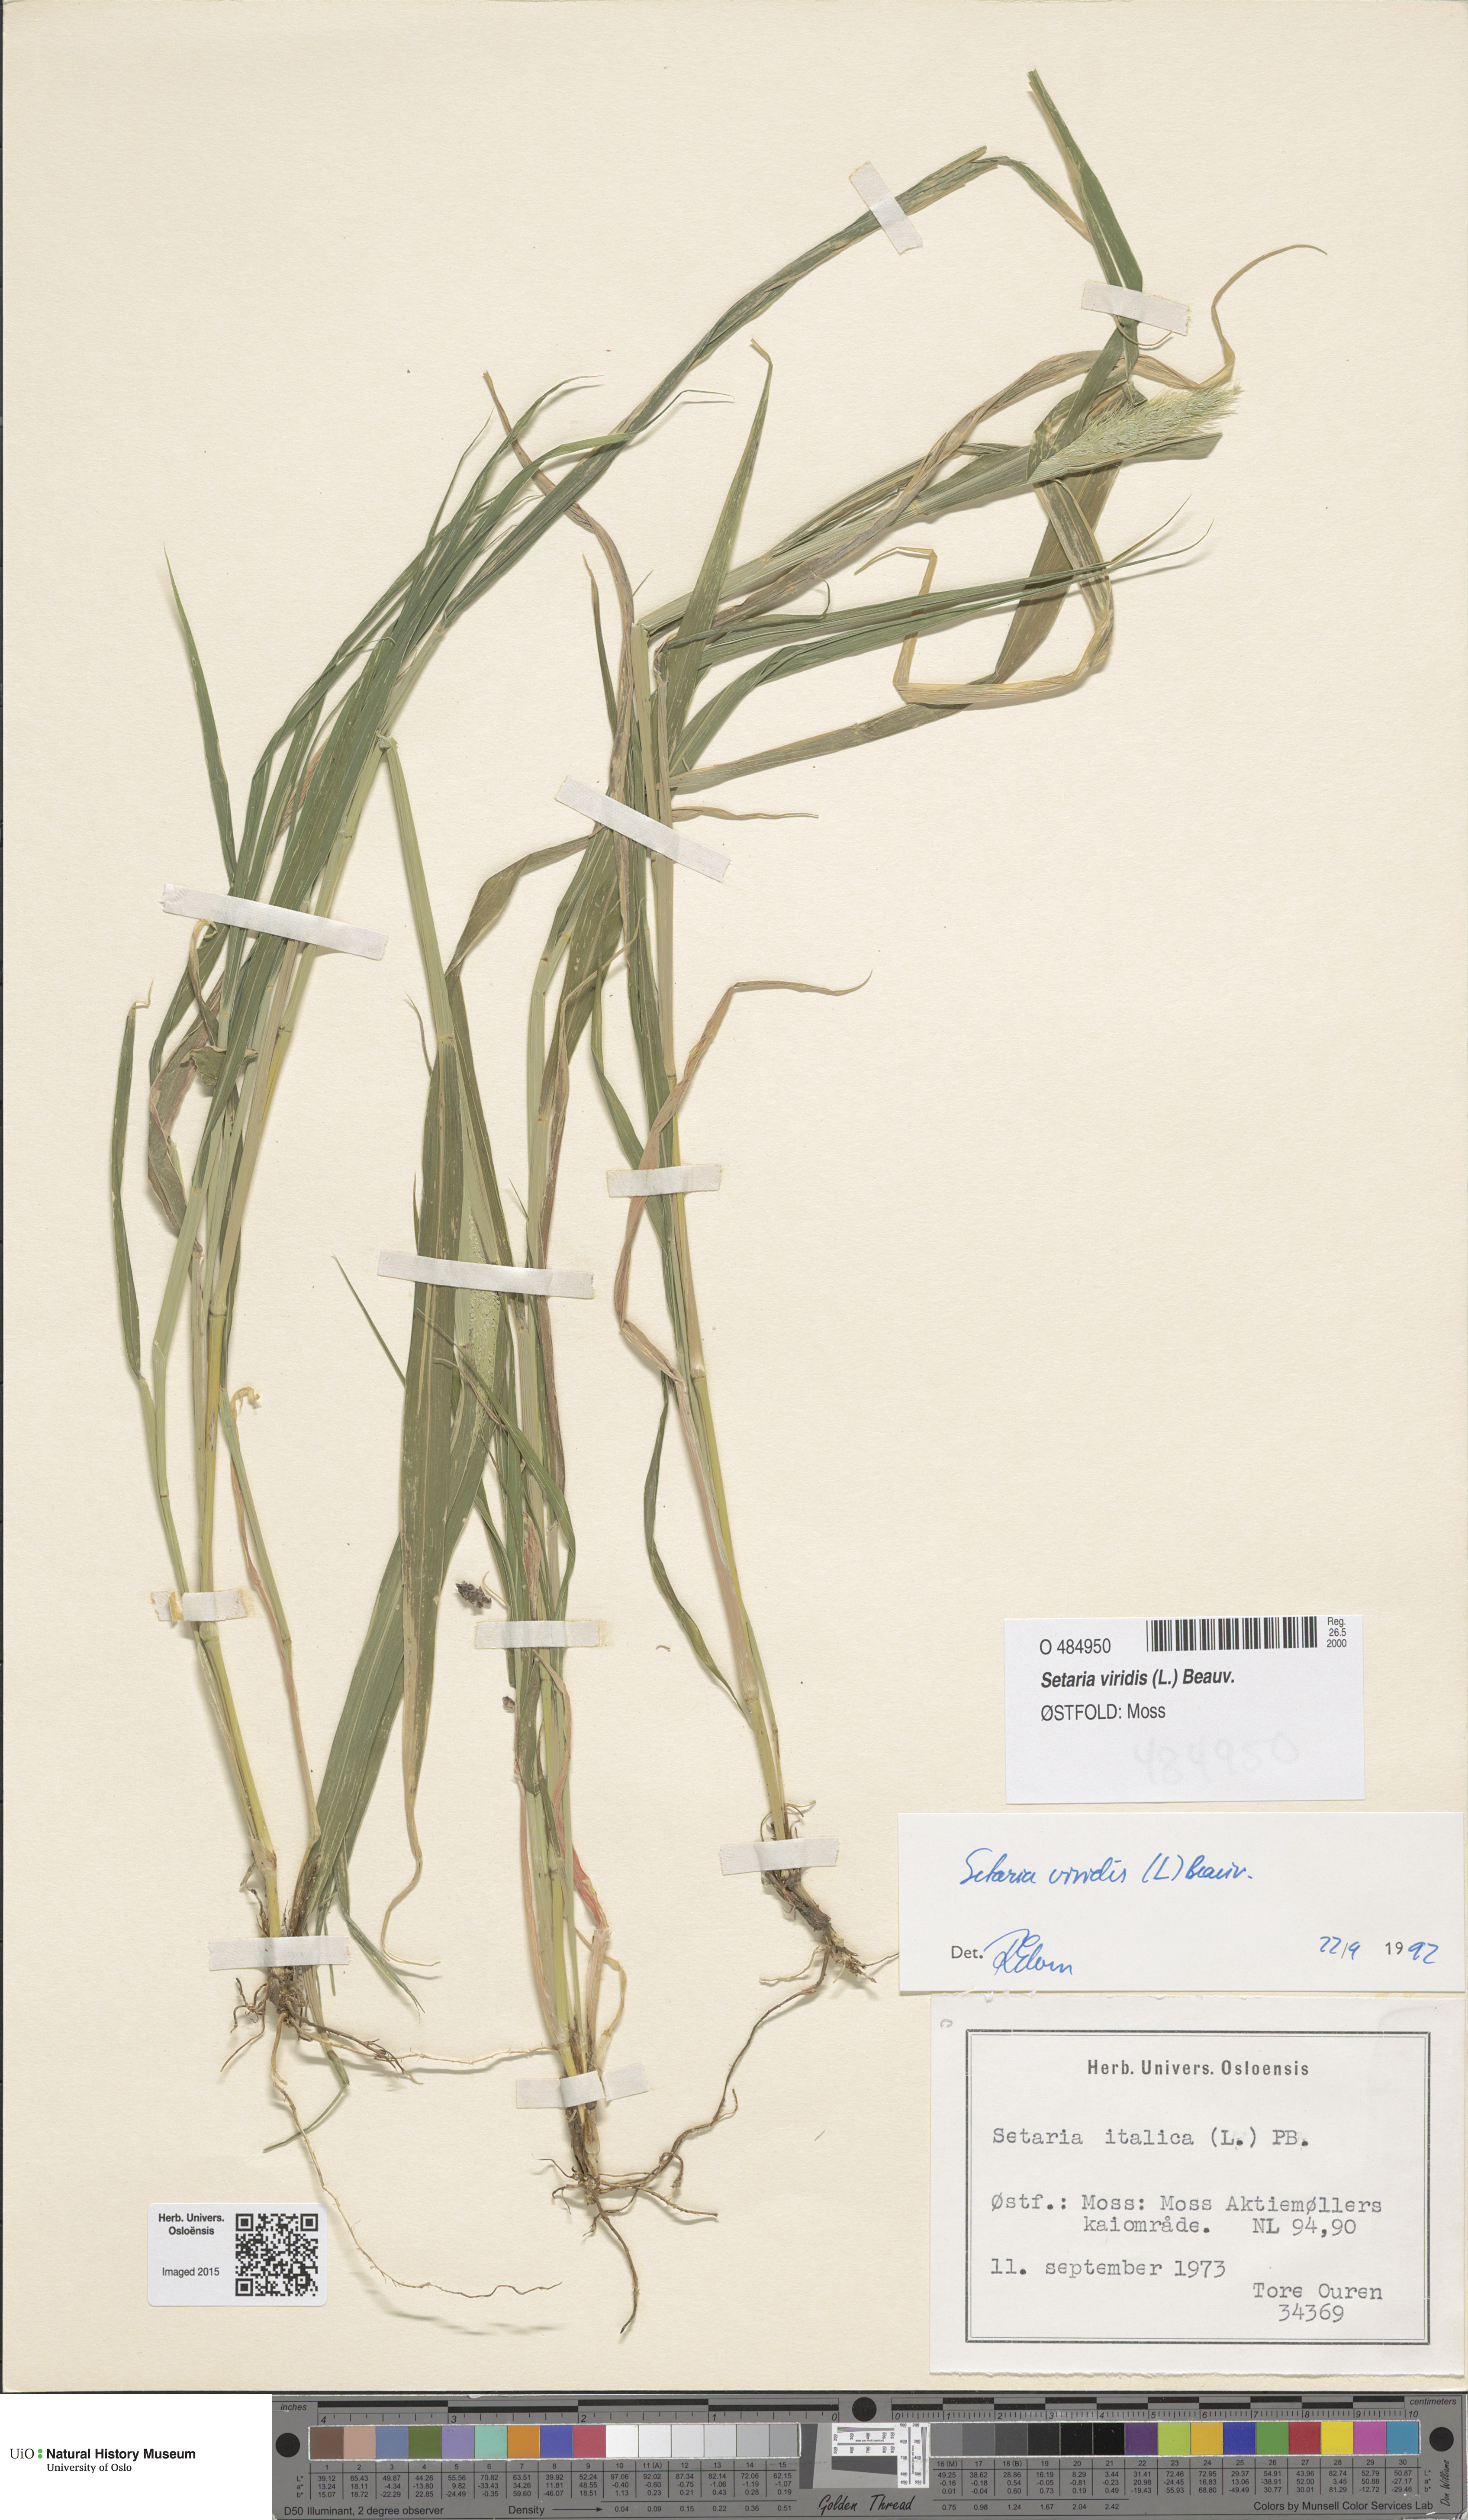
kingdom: Plantae
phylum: Tracheophyta
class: Liliopsida
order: Poales
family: Poaceae
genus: Setaria
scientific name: Setaria viridis
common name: Green bristlegrass
